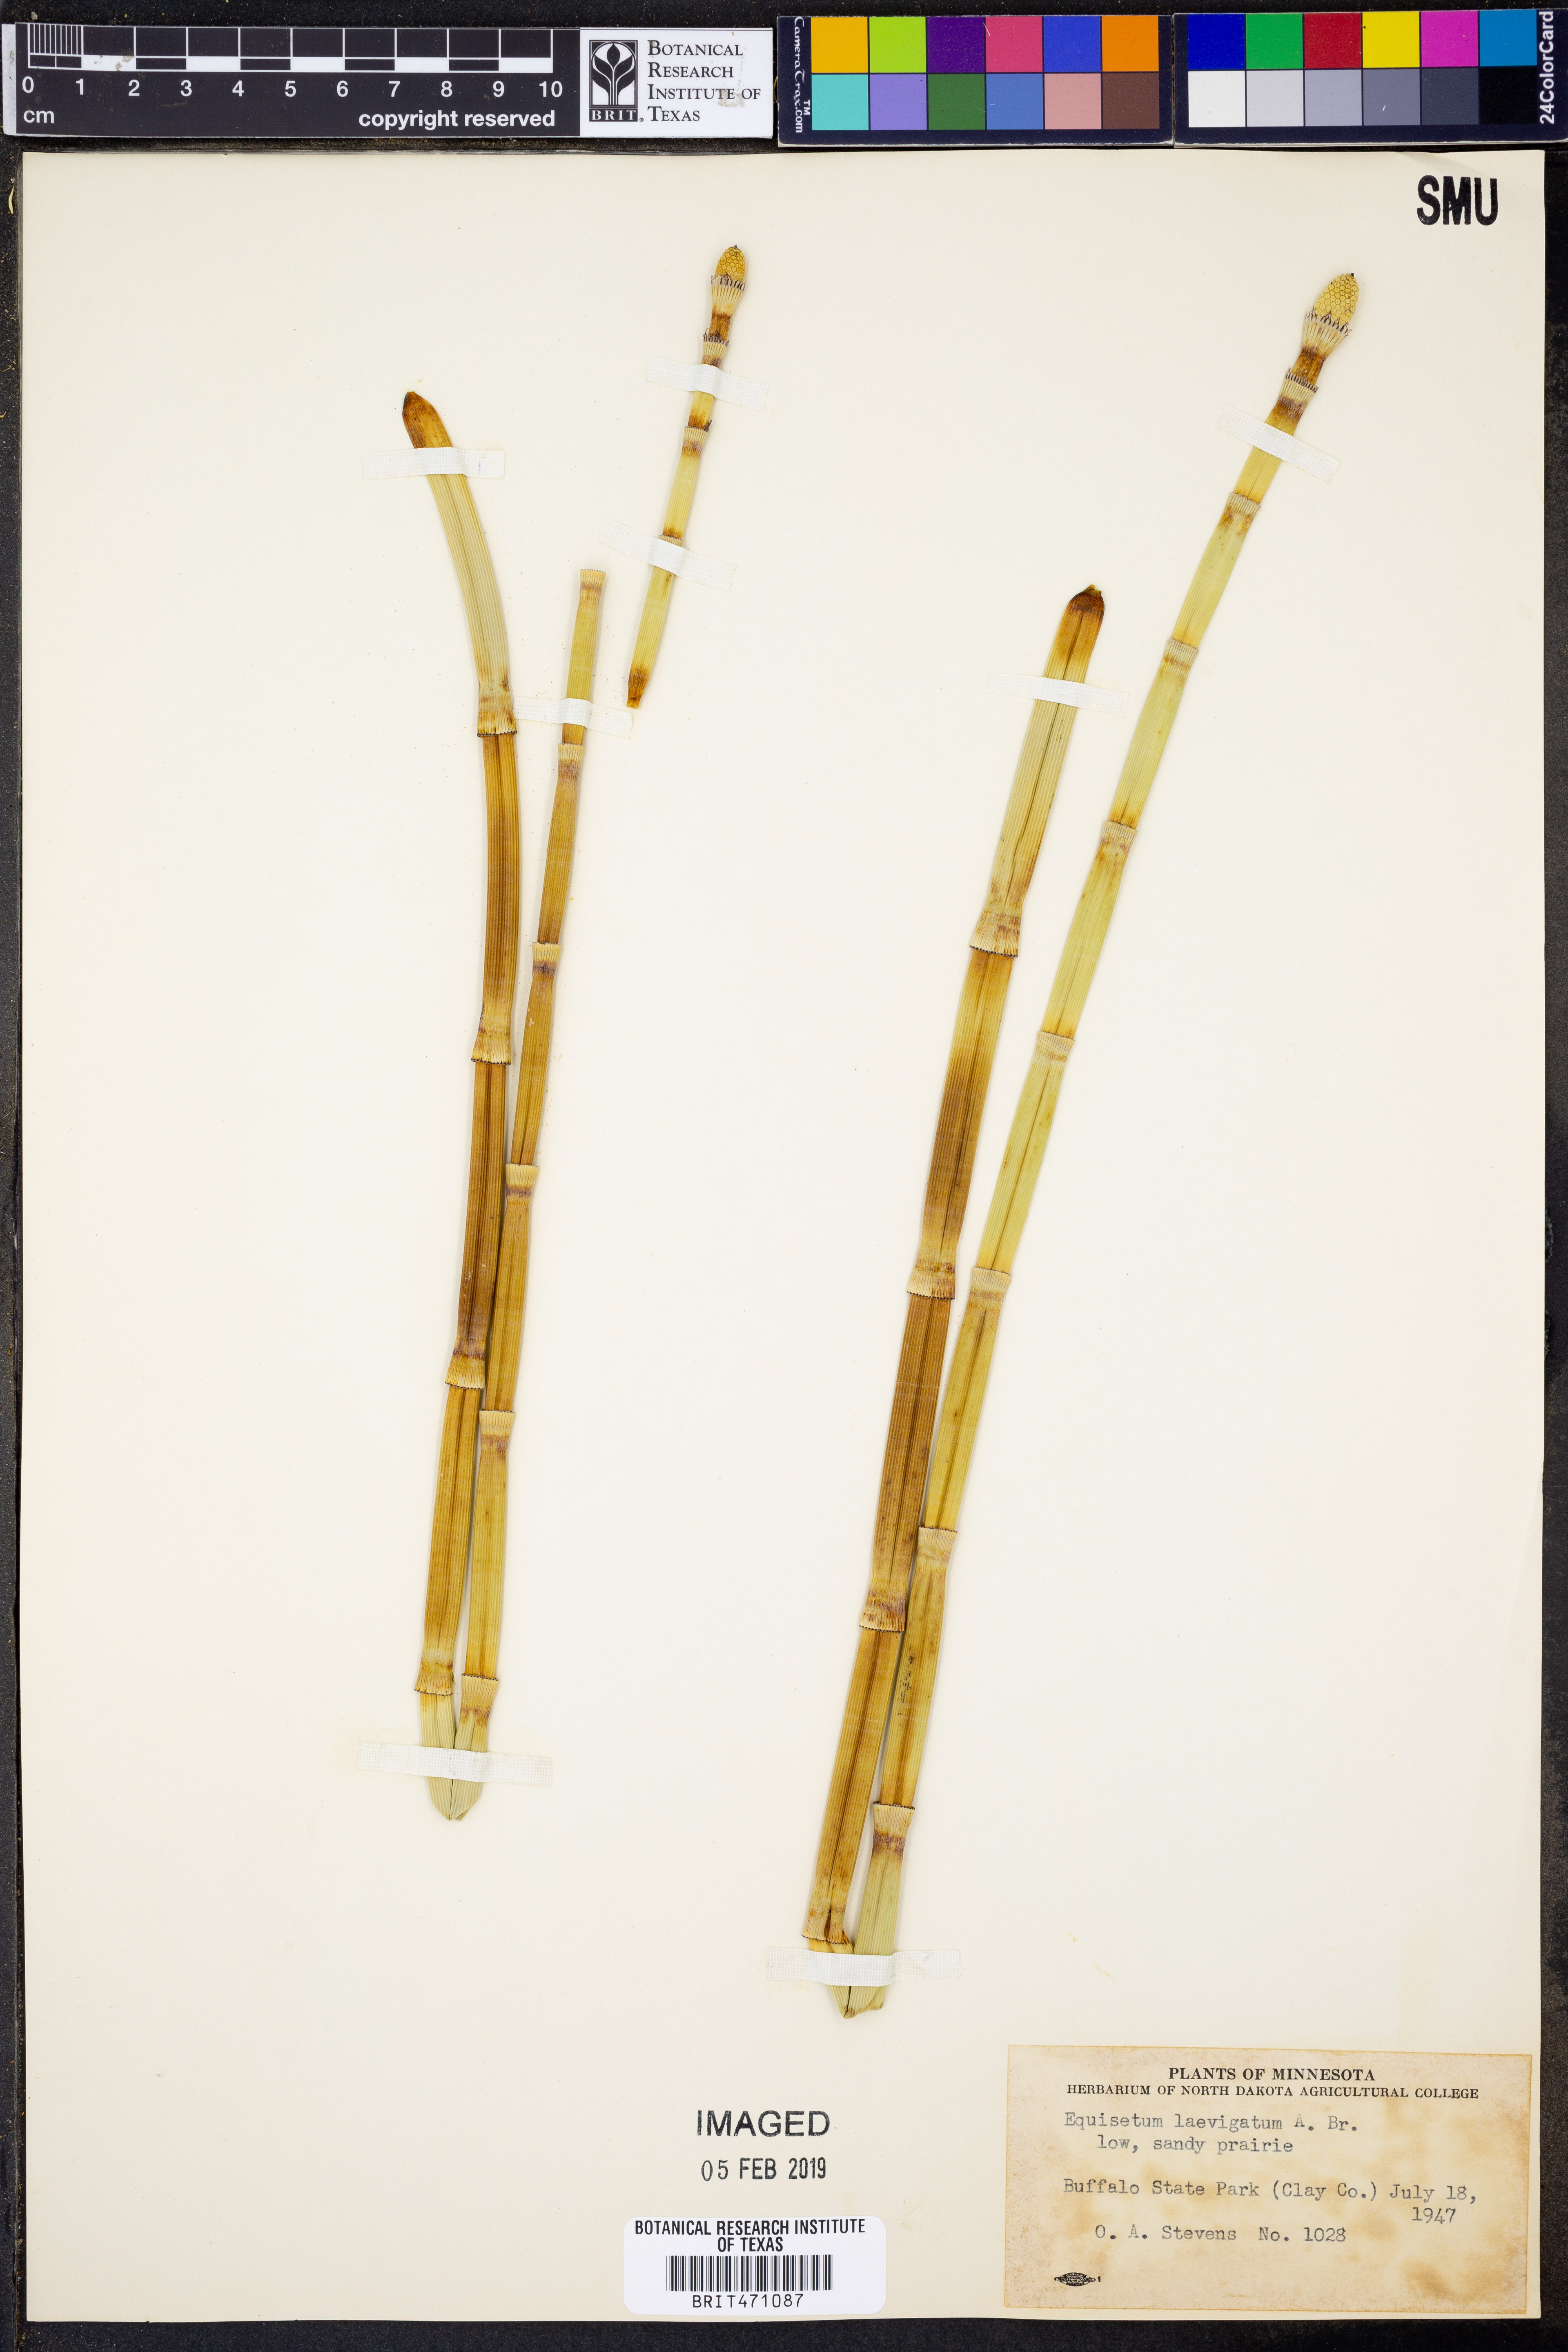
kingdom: Plantae
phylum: Tracheophyta
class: Polypodiopsida
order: Equisetales
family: Equisetaceae
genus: Equisetum
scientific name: Equisetum laevigatum
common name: Smooth scouring-rush
